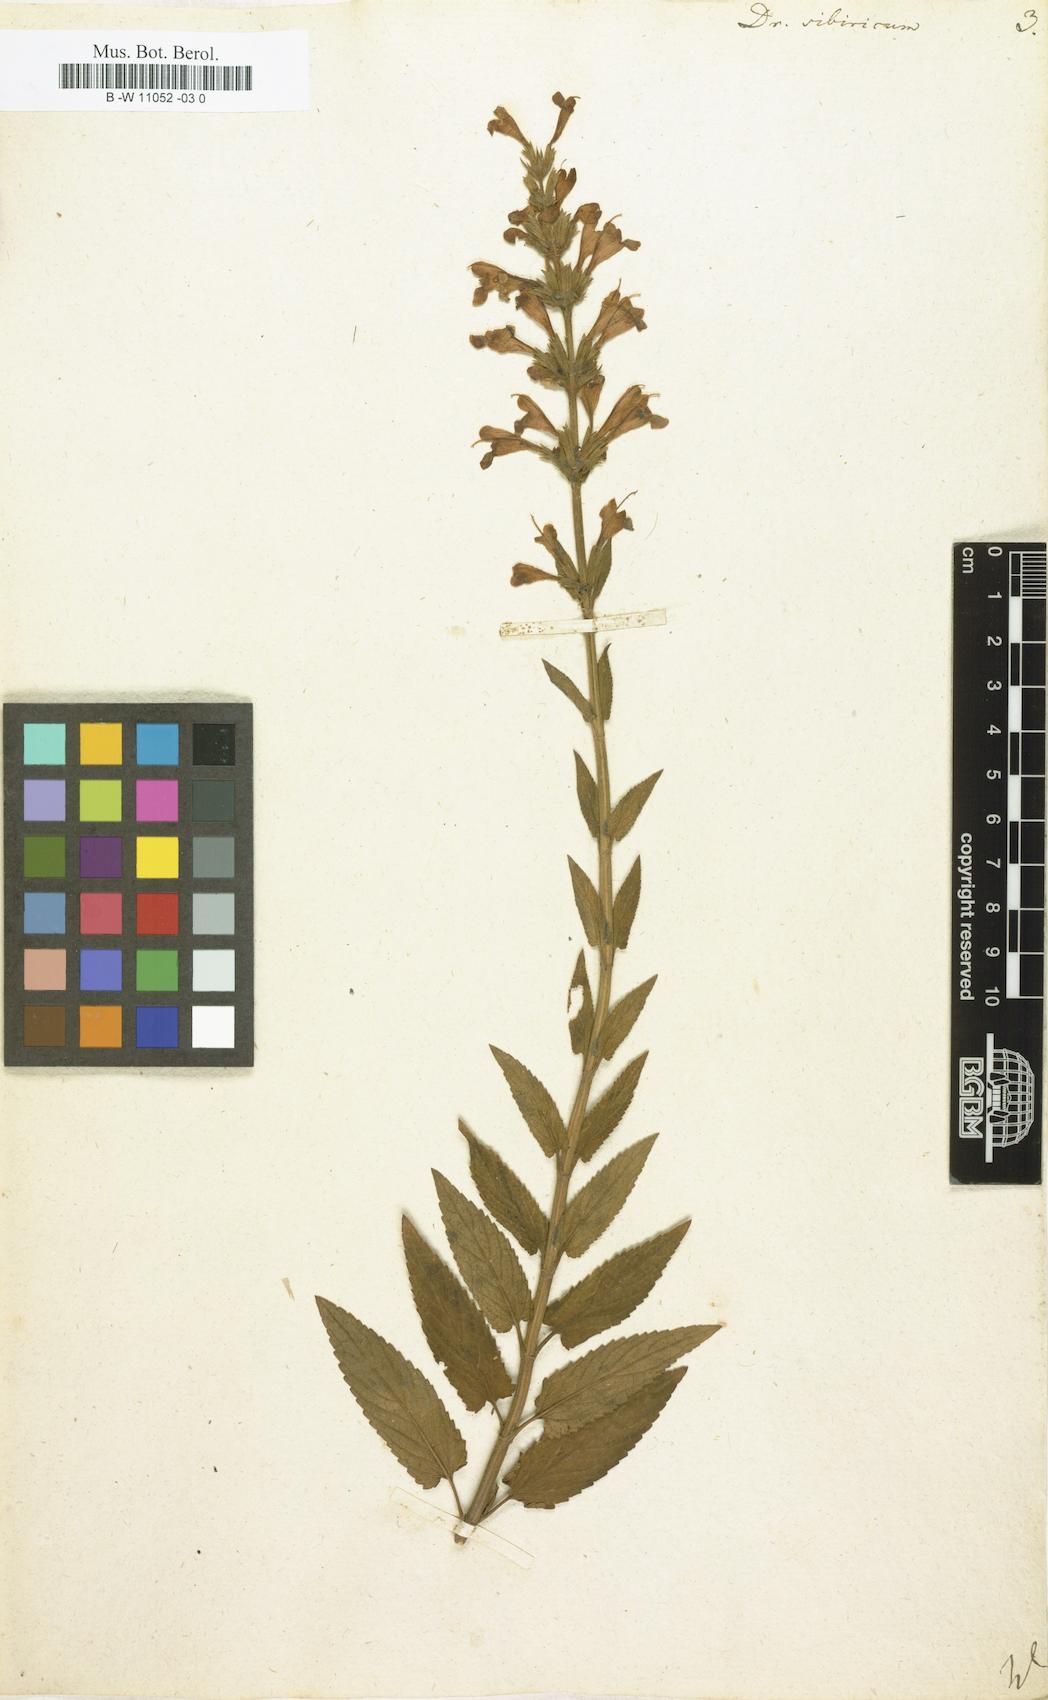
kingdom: Plantae
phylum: Tracheophyta
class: Magnoliopsida
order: Lamiales
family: Lamiaceae
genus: Nepeta
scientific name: Nepeta sibirica
